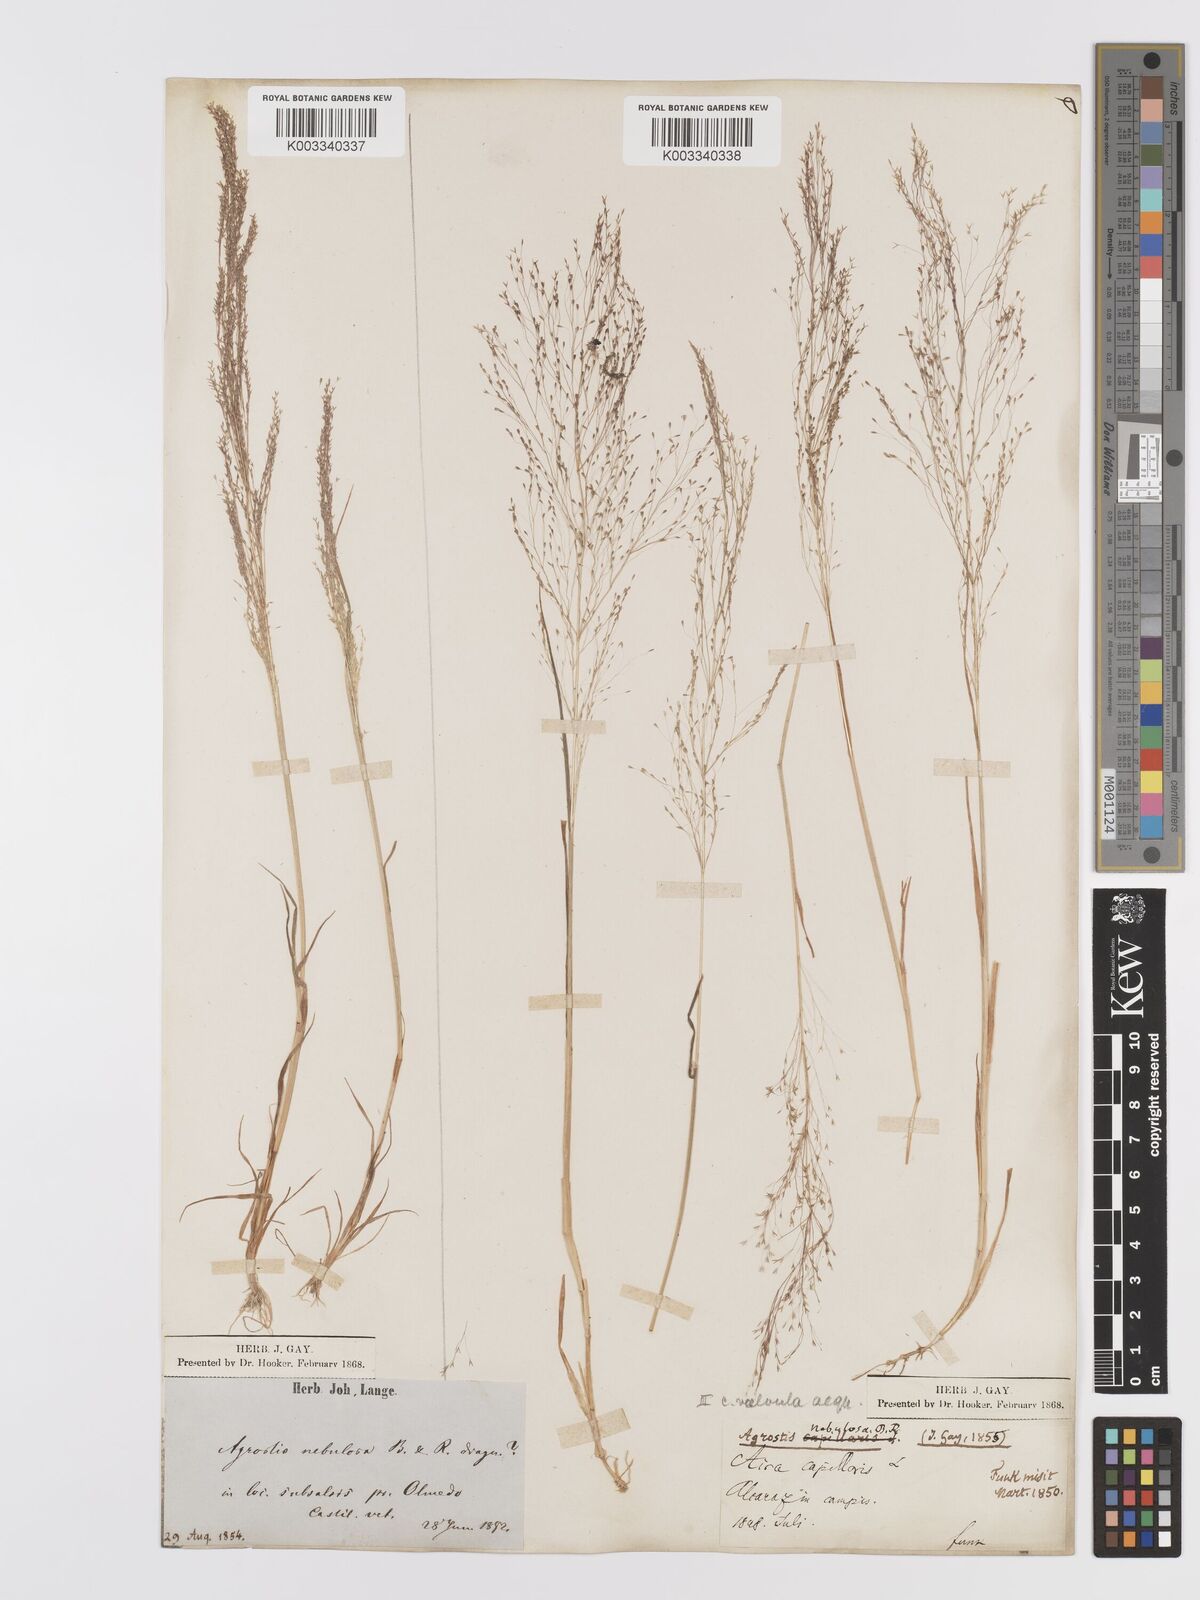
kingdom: Plantae
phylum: Tracheophyta
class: Liliopsida
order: Poales
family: Poaceae
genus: Agrostis
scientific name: Agrostis nebulosa
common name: Cloud grass
